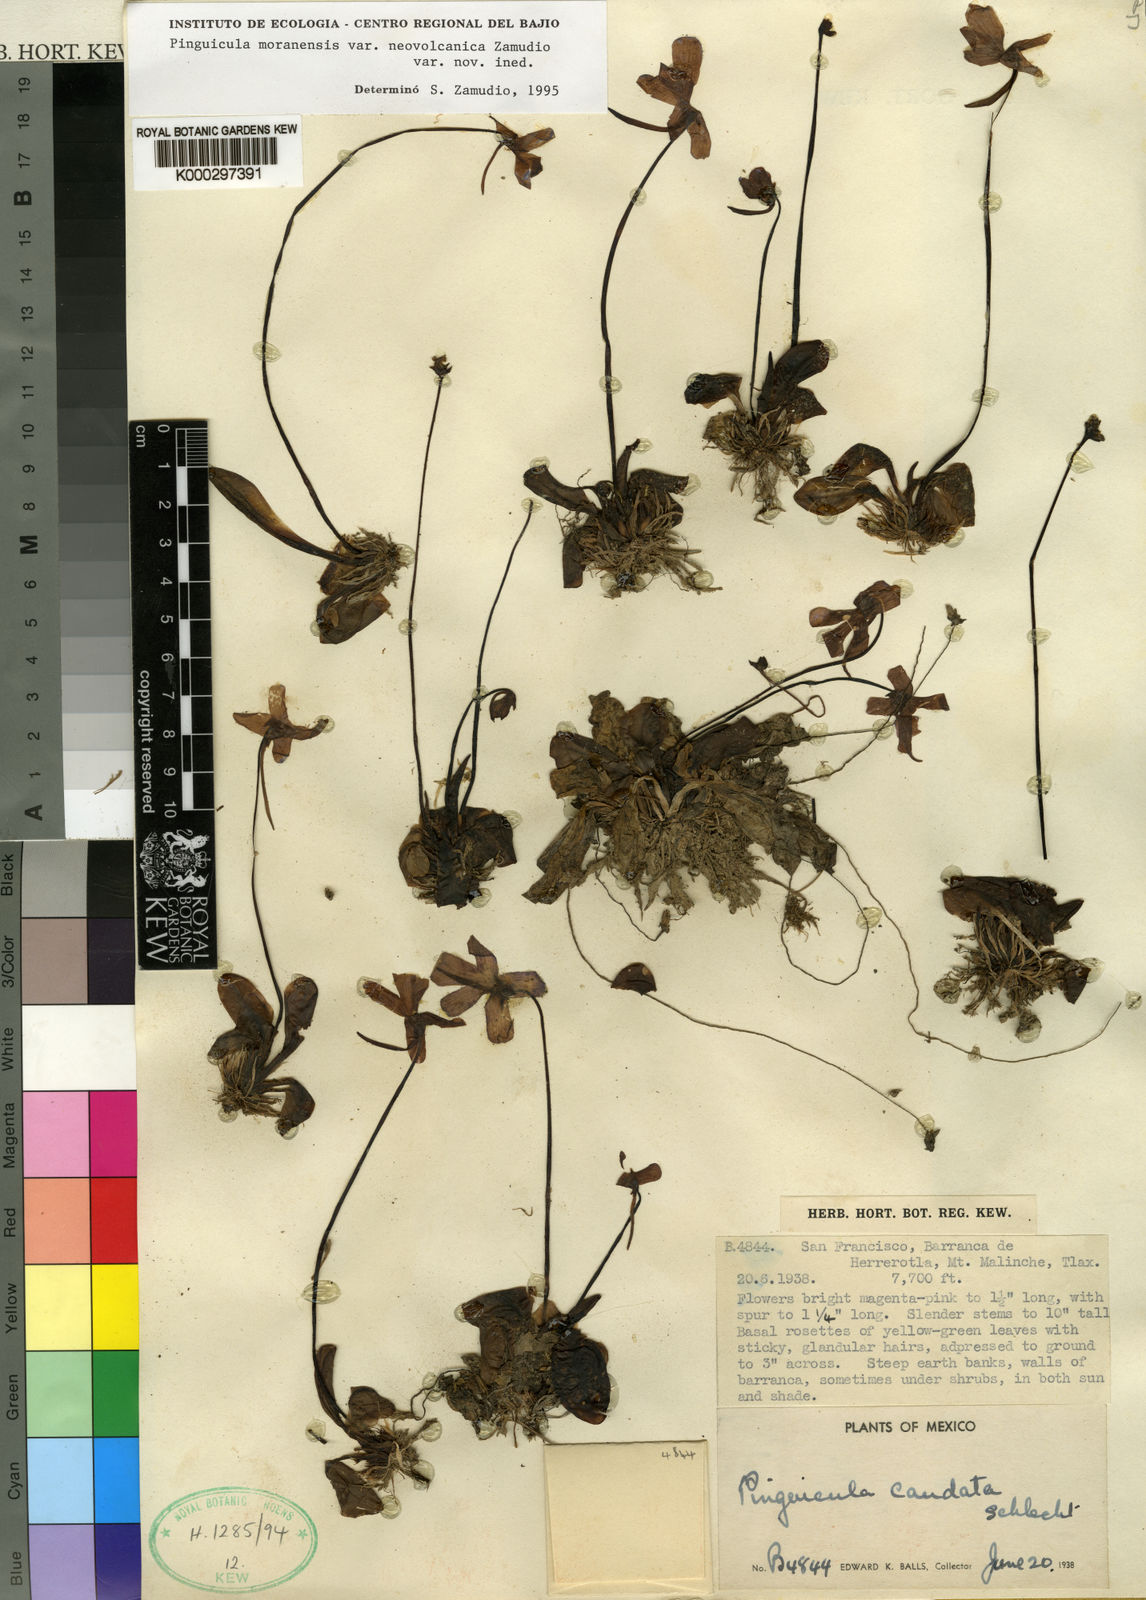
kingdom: Plantae
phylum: Tracheophyta
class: Magnoliopsida
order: Lamiales
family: Lentibulariaceae
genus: Pinguicula
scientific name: Pinguicula moranensis
